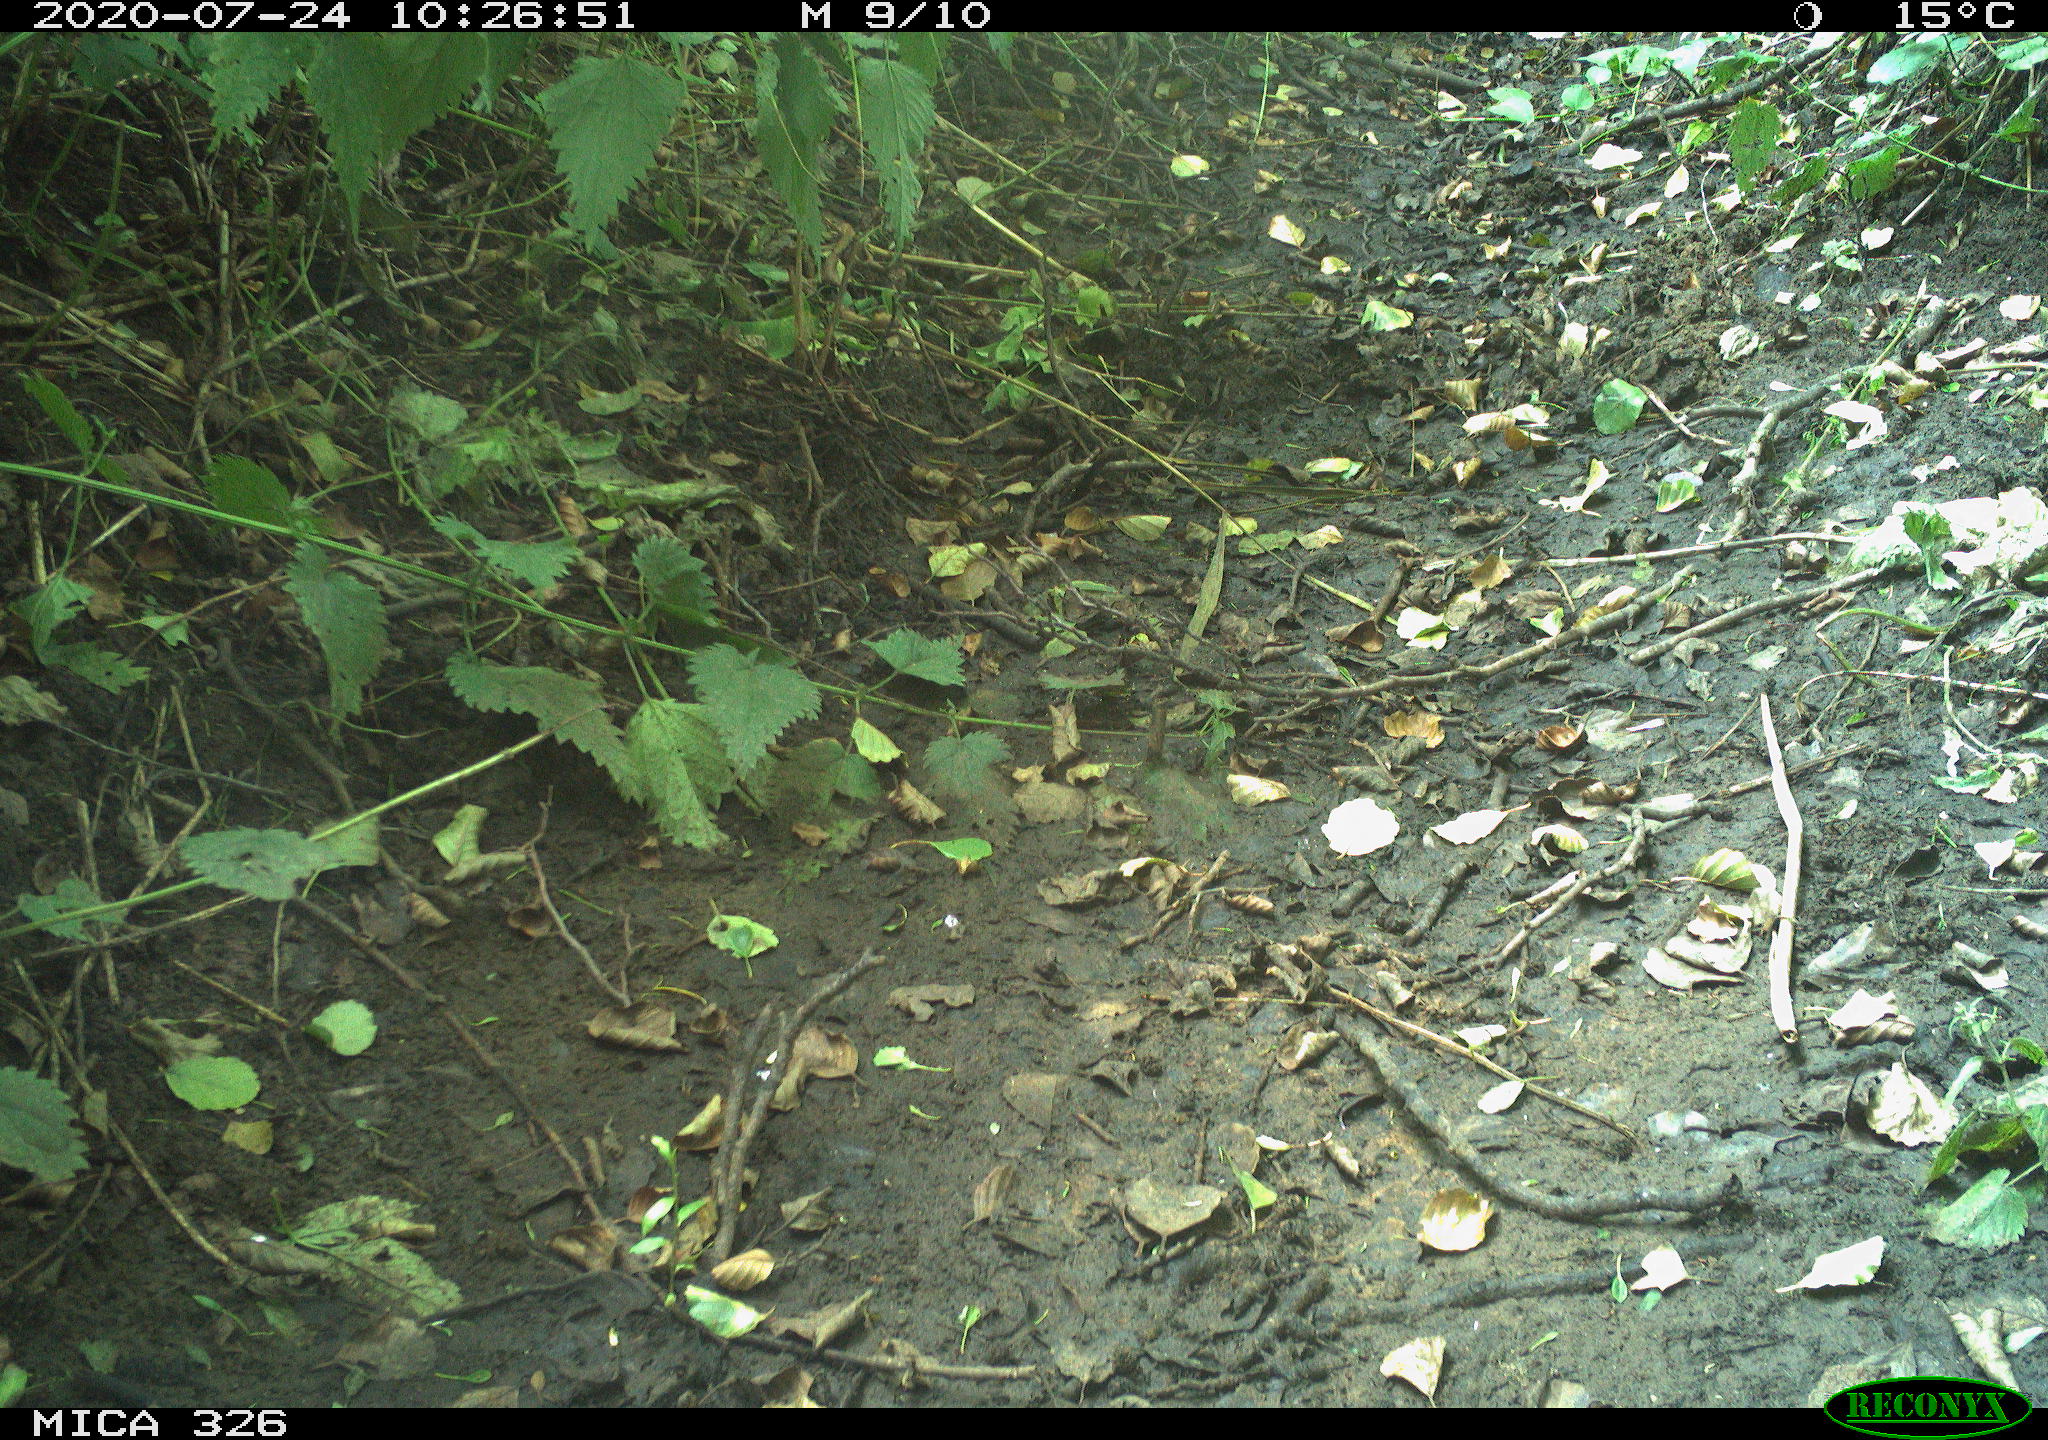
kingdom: Animalia
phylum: Chordata
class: Aves
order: Passeriformes
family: Turdidae
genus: Turdus
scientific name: Turdus philomelos
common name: Song thrush
